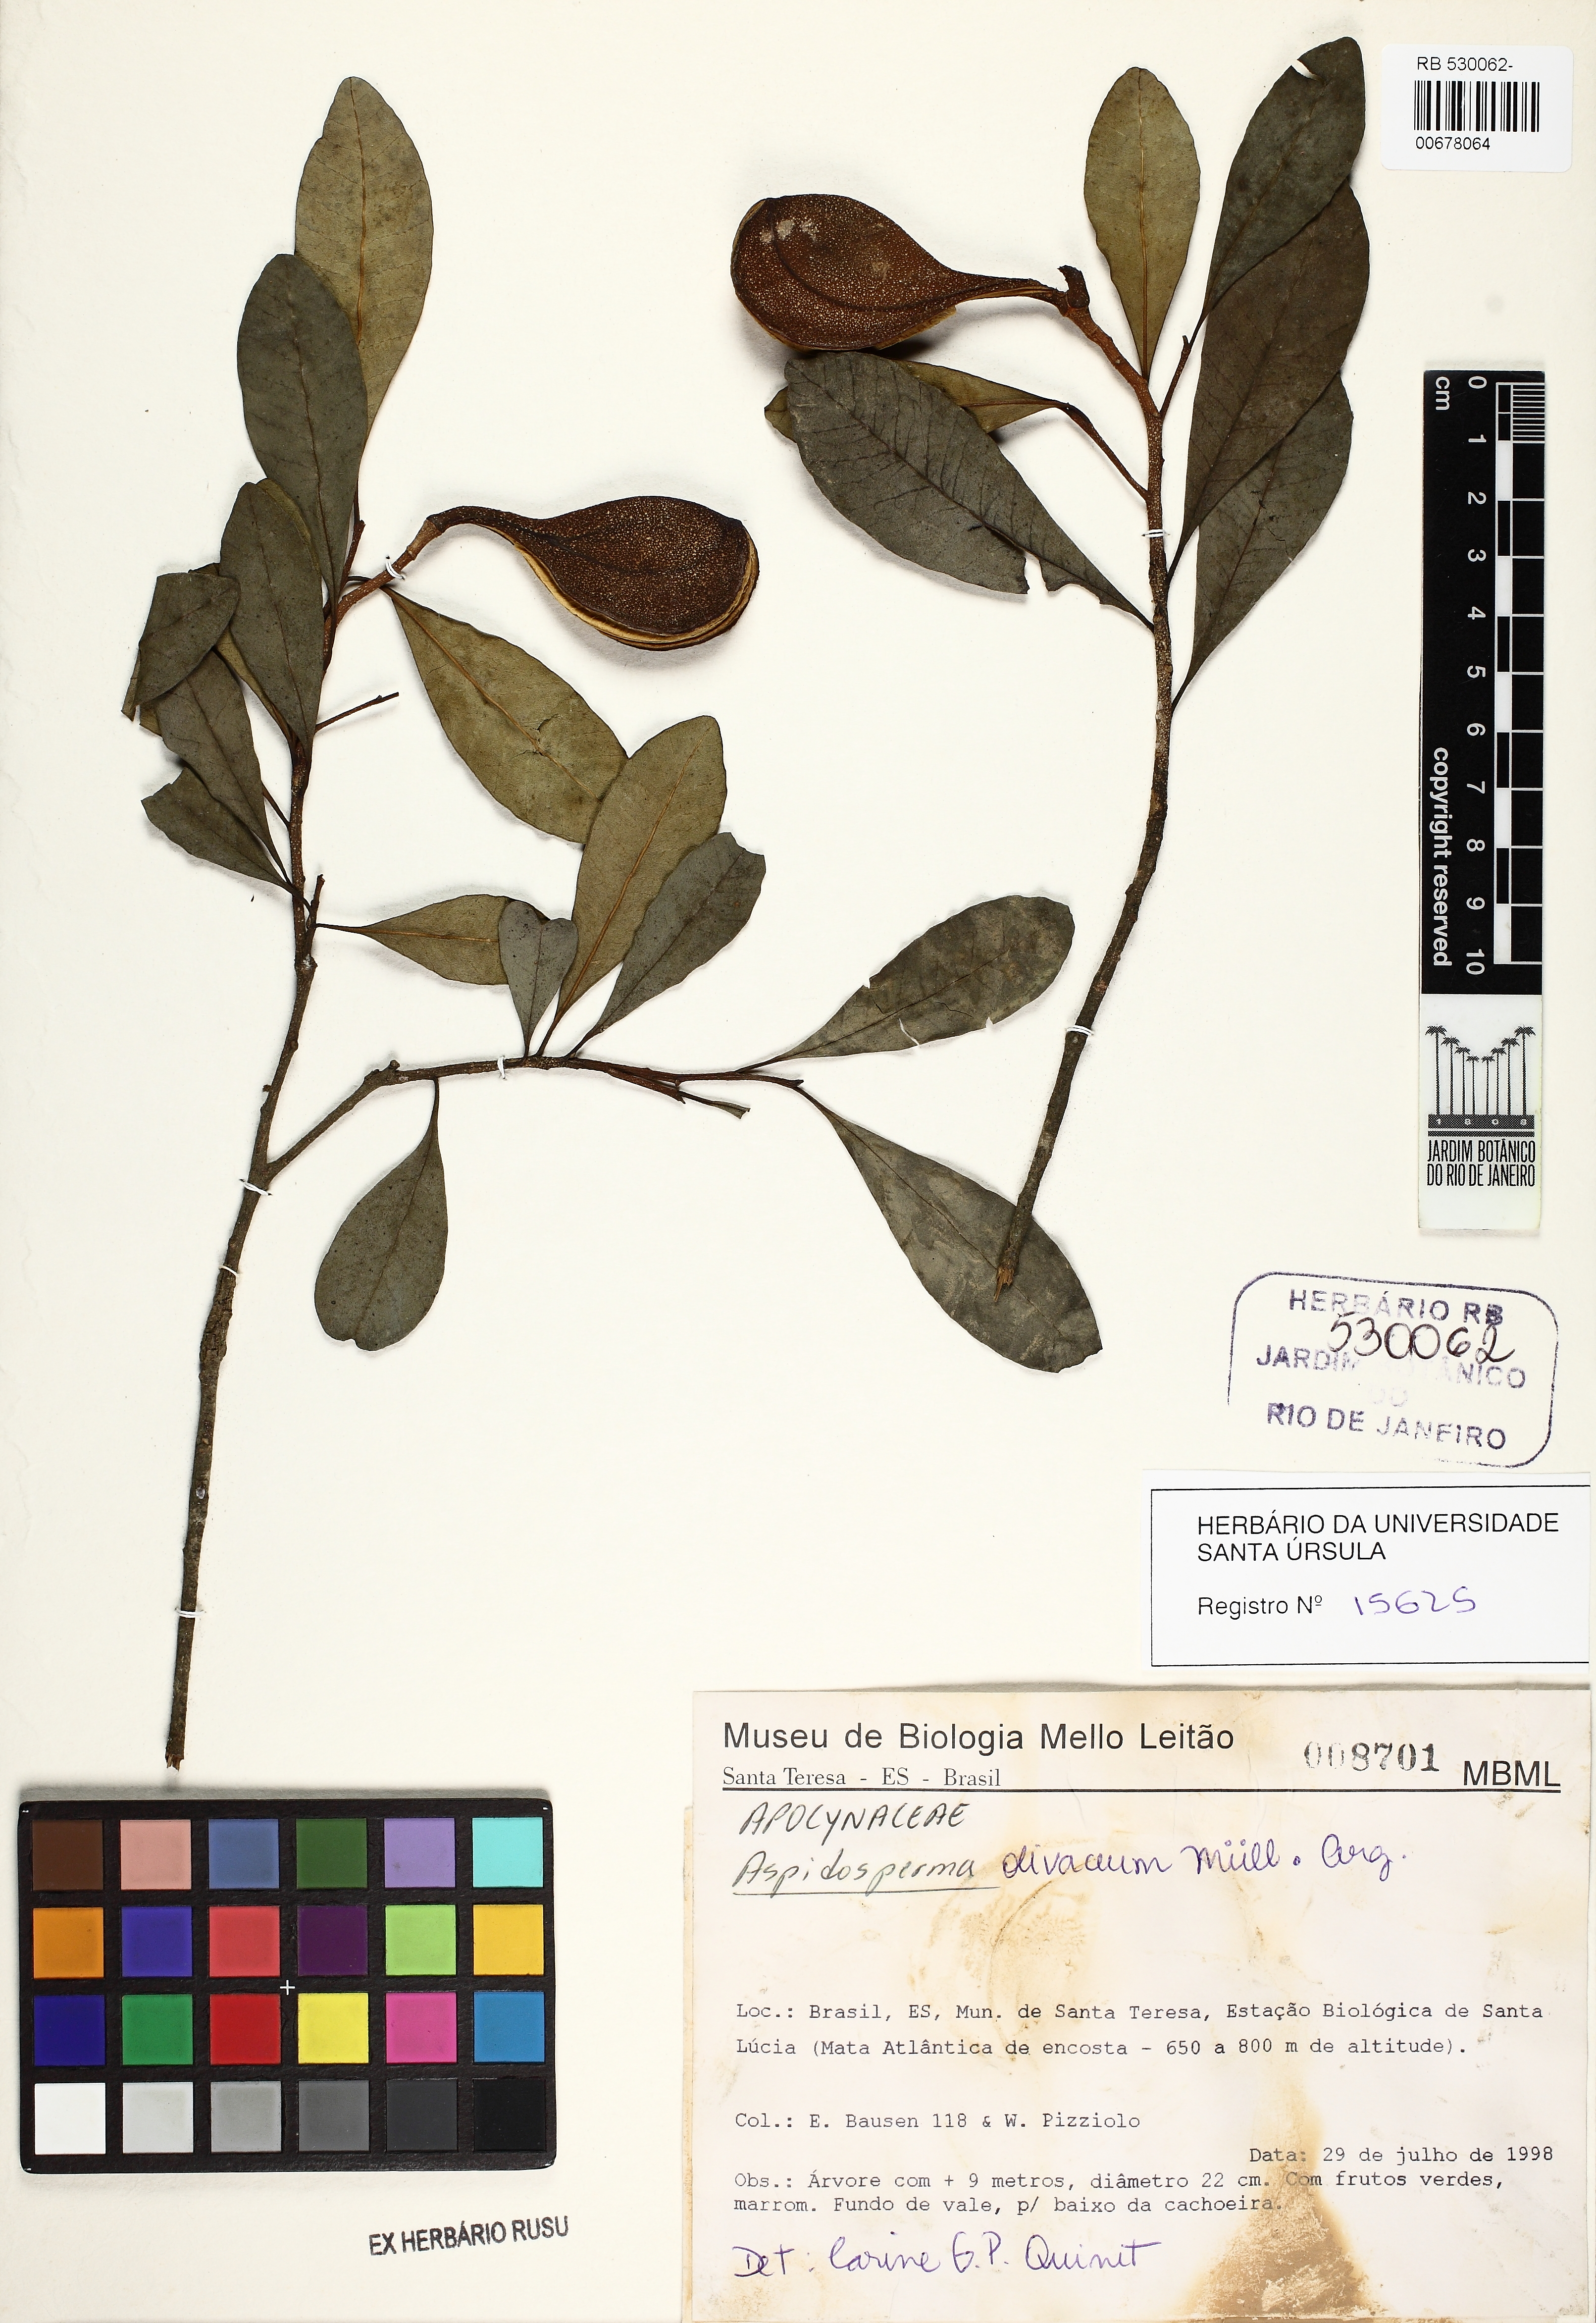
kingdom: Plantae
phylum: Tracheophyta
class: Magnoliopsida
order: Gentianales
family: Apocynaceae
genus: Aspidosperma
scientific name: Aspidosperma olivaceum
